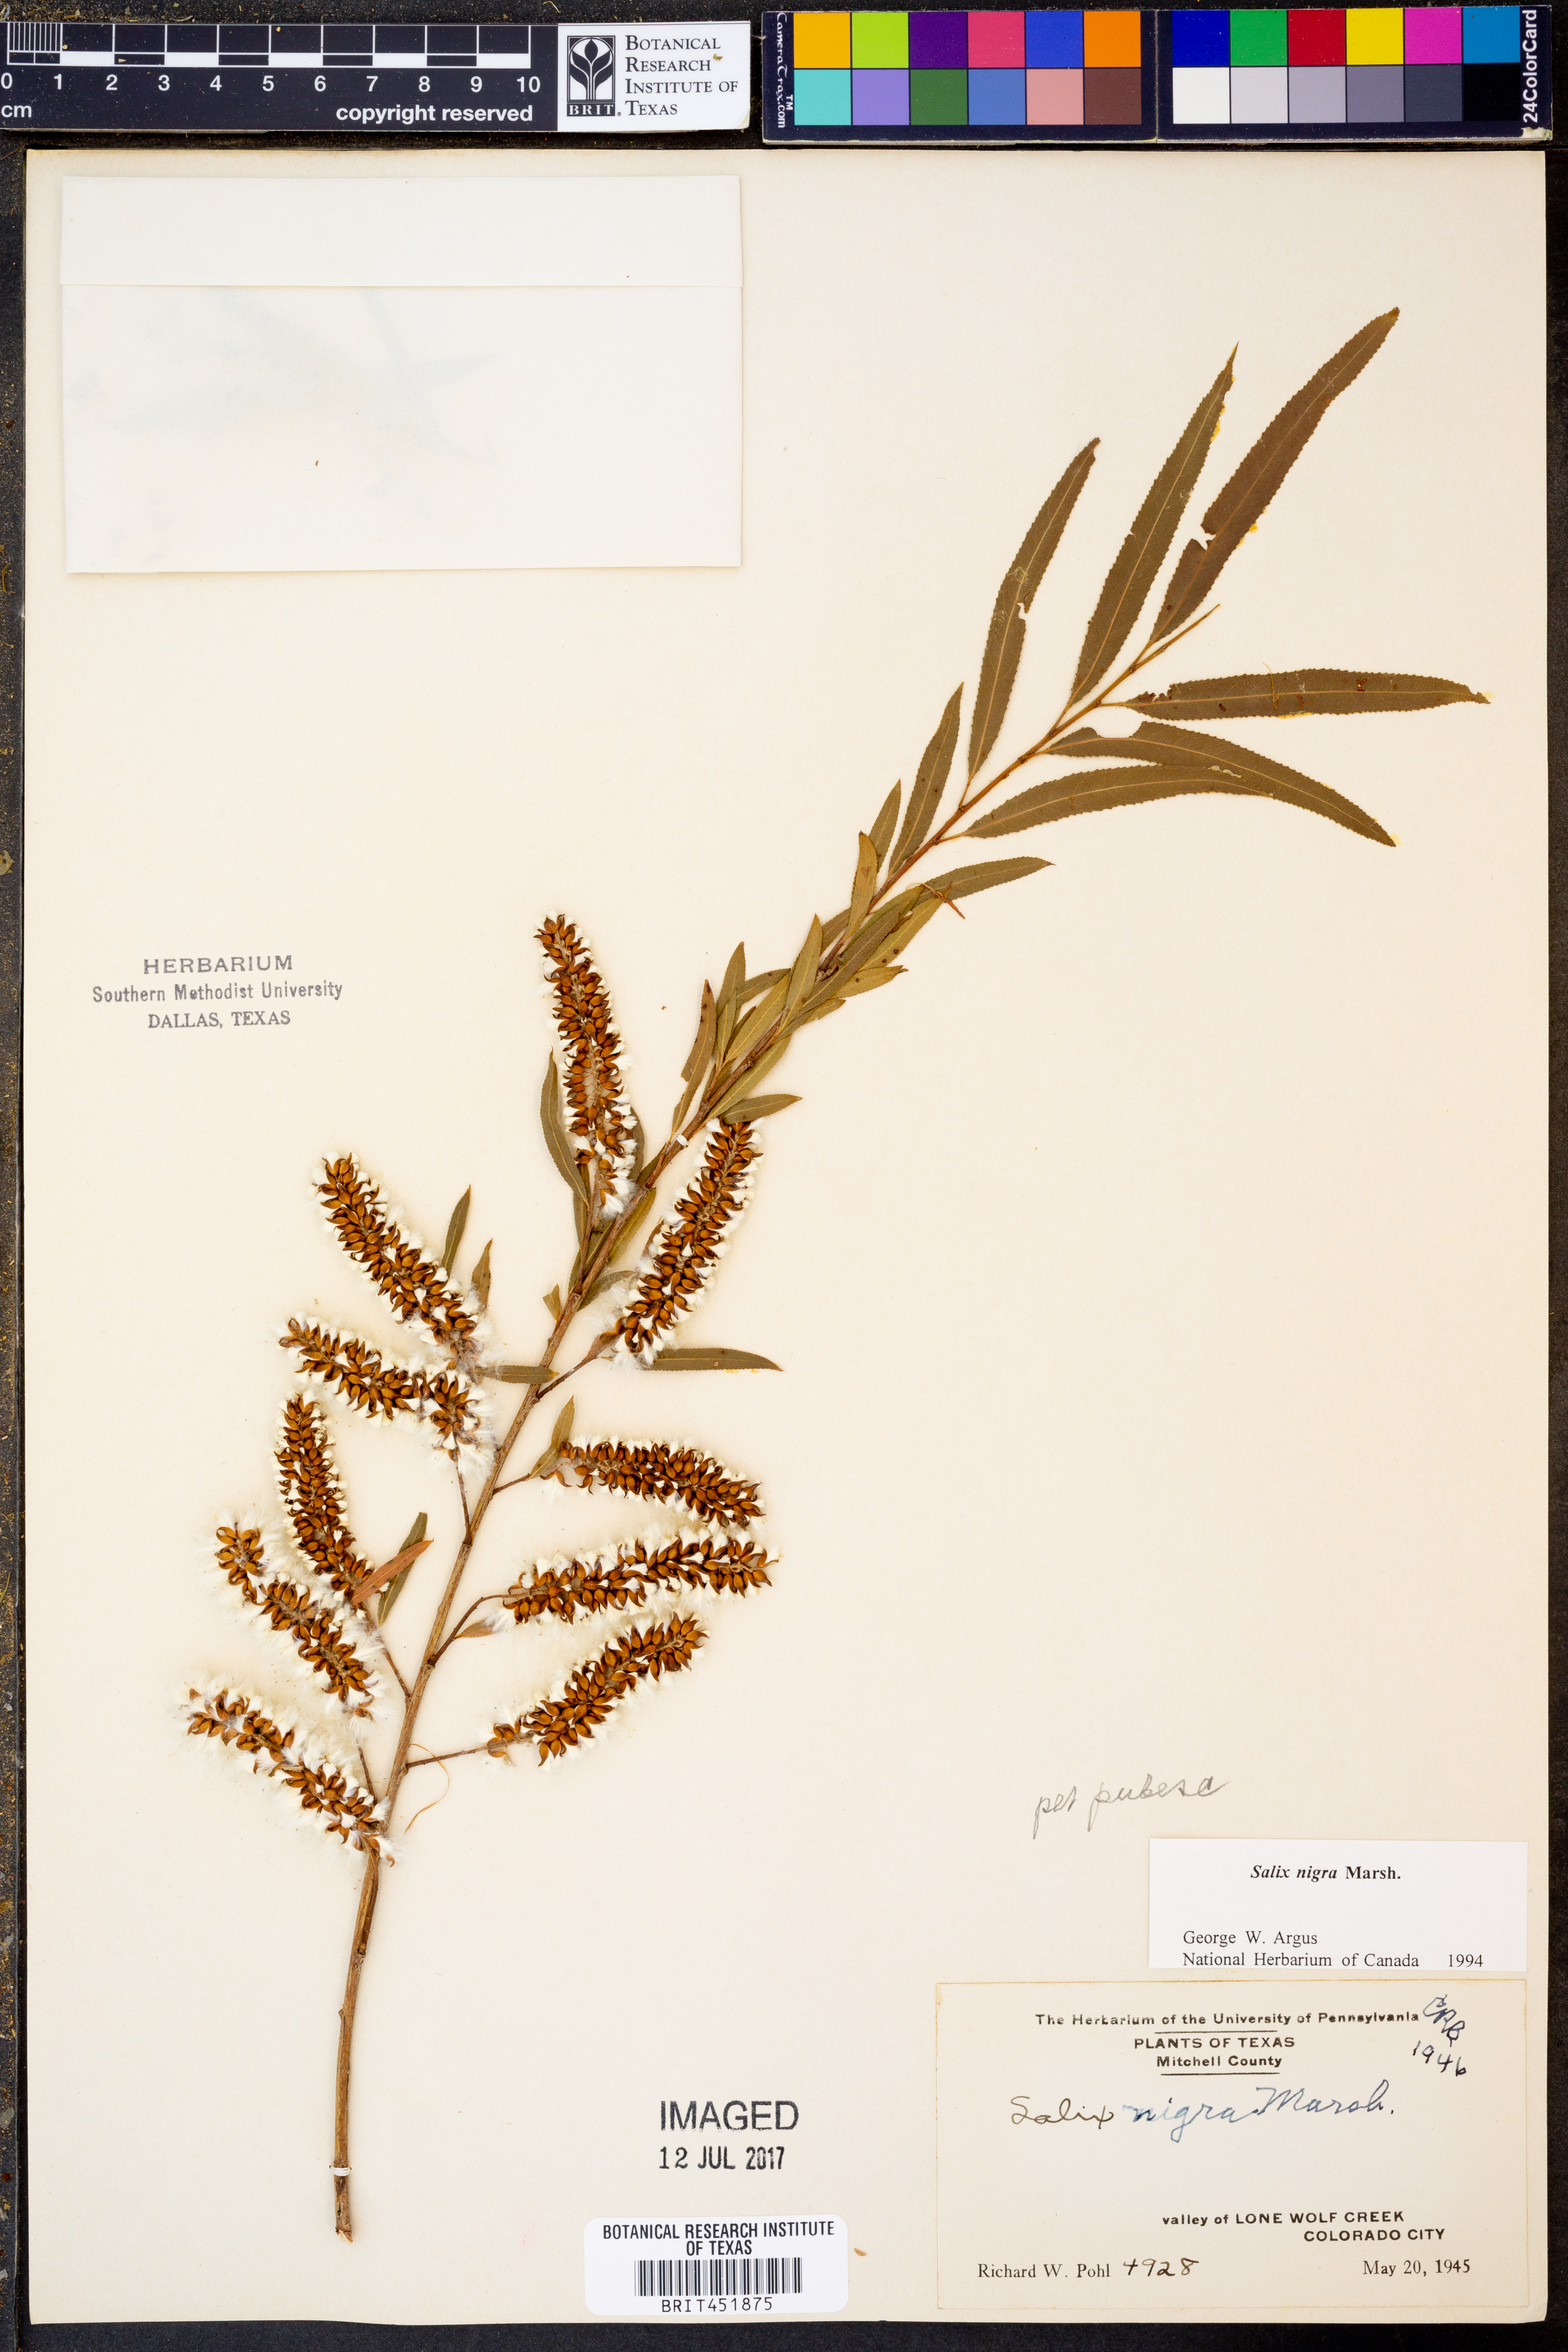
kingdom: Plantae
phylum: Tracheophyta
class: Magnoliopsida
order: Malpighiales
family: Salicaceae
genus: Salix
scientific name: Salix nigra
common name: Black willow
